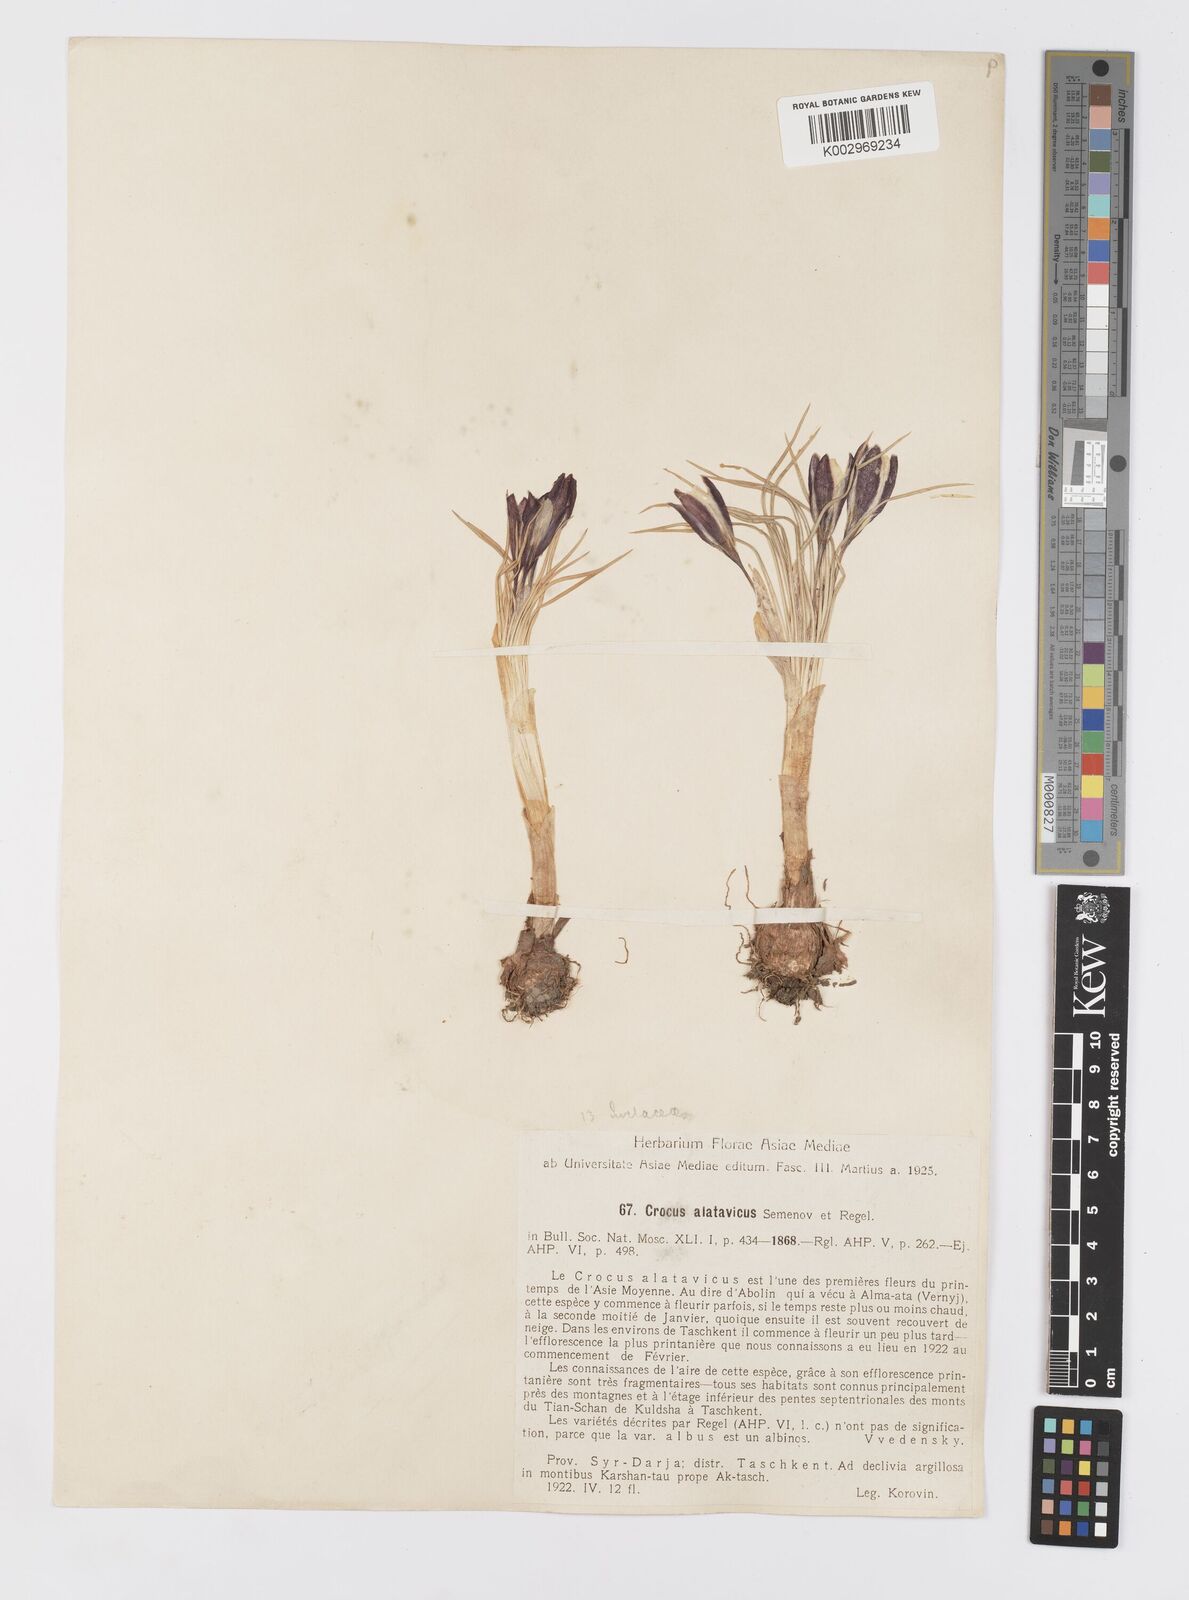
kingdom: Plantae
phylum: Tracheophyta
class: Liliopsida
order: Asparagales
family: Iridaceae
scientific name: Iridaceae
